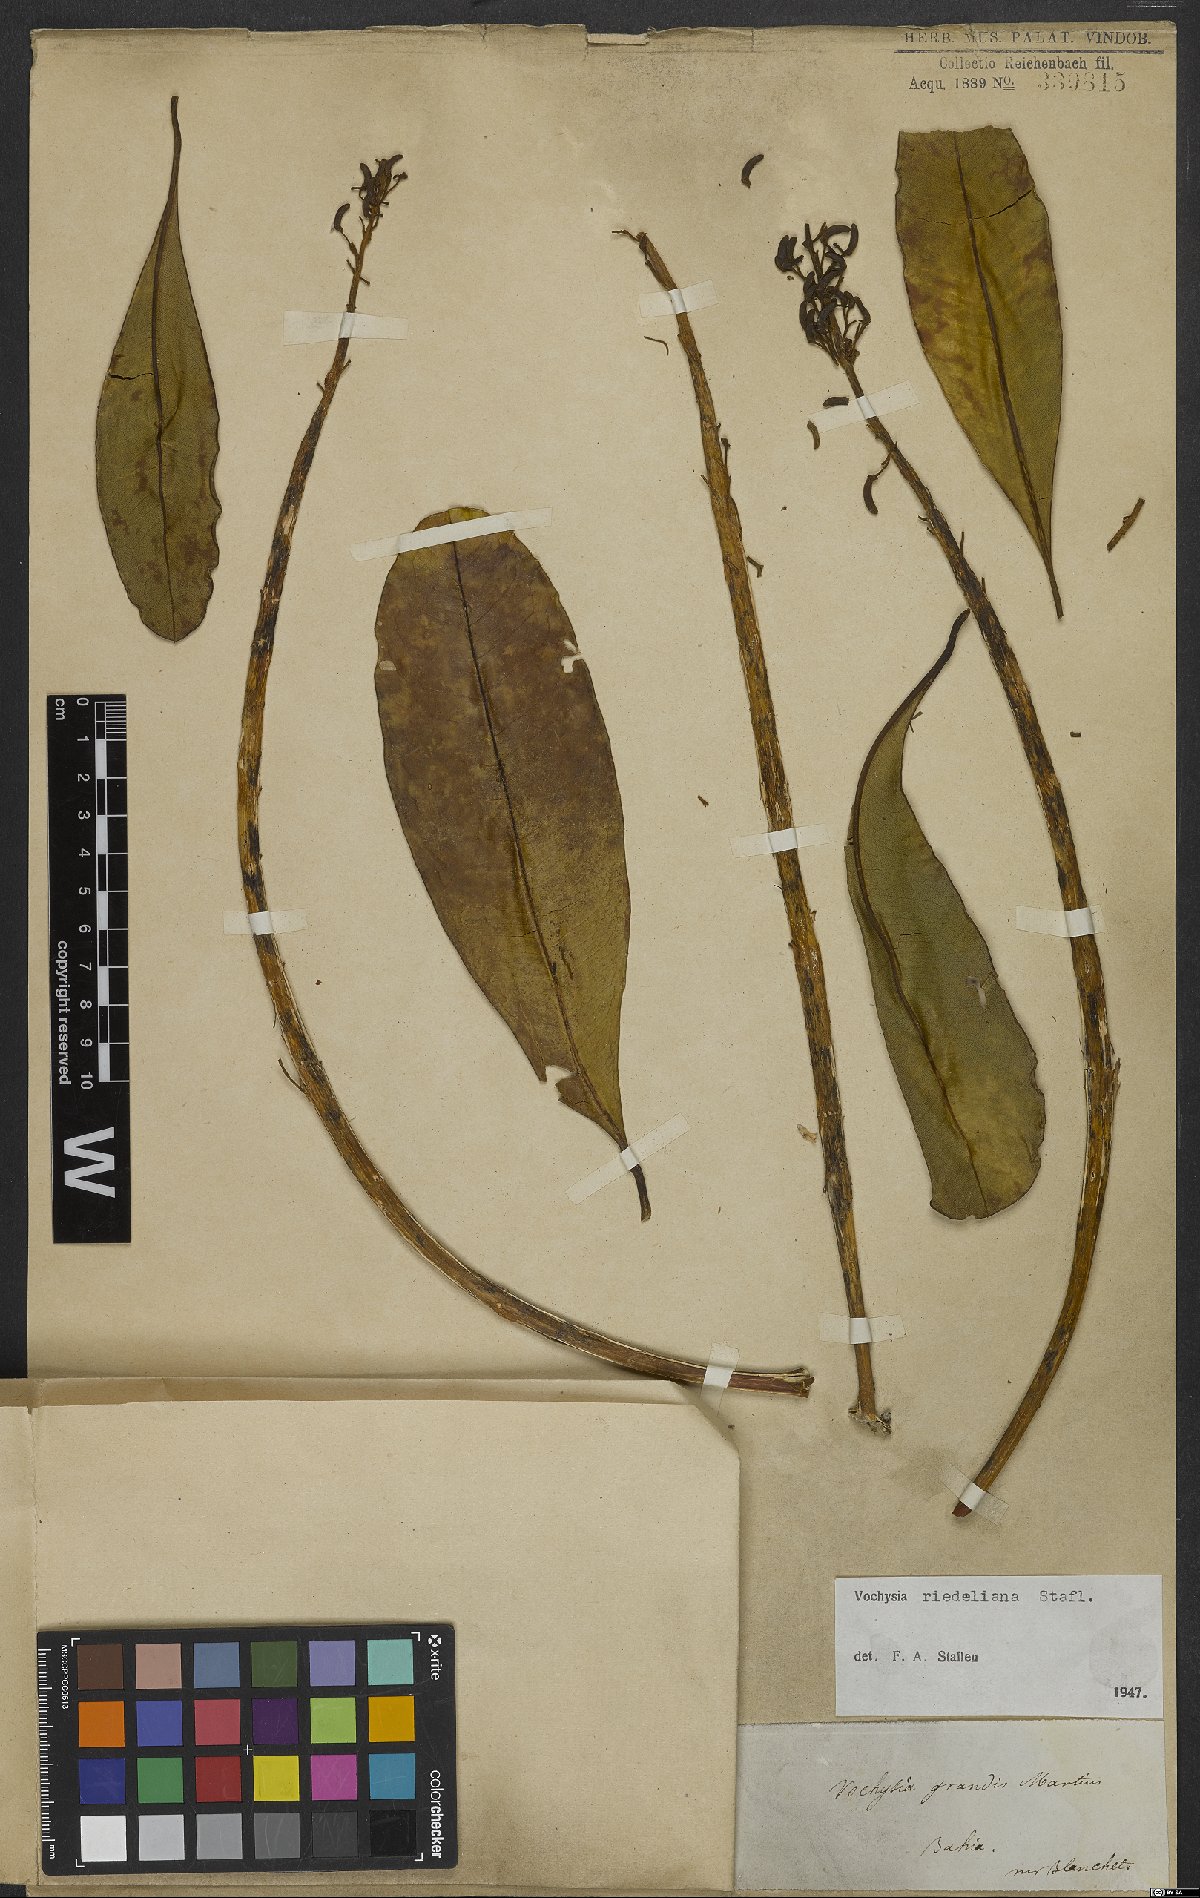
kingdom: Plantae
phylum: Tracheophyta
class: Magnoliopsida
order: Myrtales
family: Vochysiaceae
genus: Vochysia
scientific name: Vochysia riedeliana
